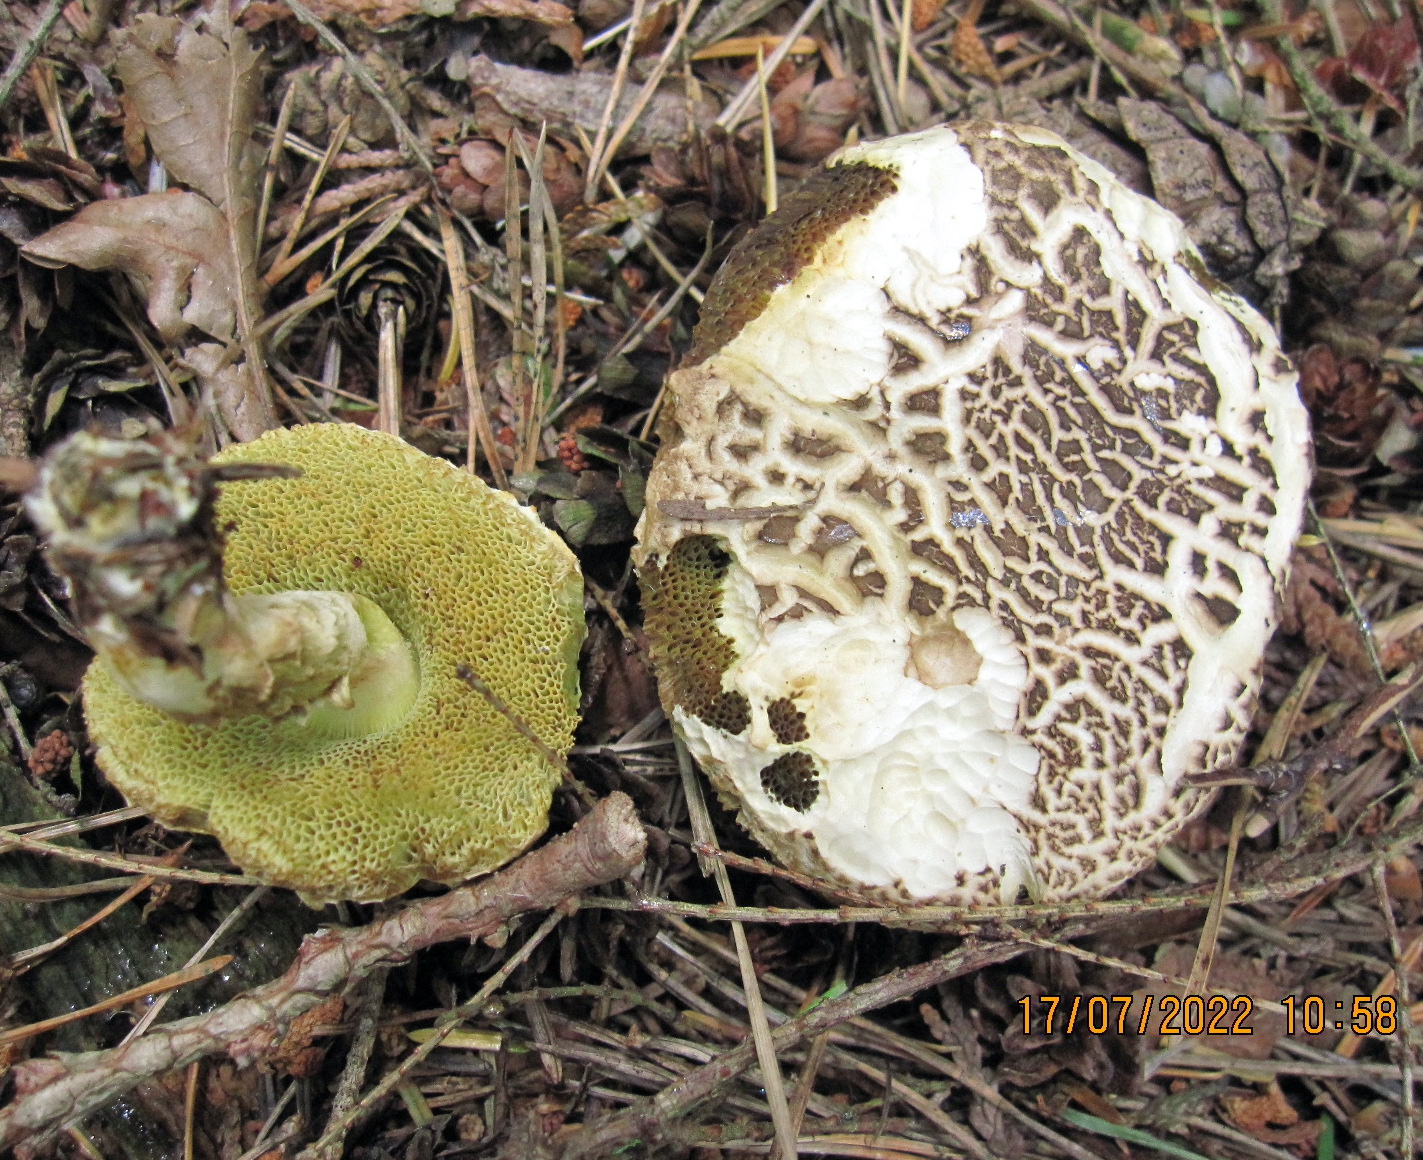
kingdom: Fungi
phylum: Basidiomycota
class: Agaricomycetes
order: Boletales
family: Boletaceae
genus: Xerocomellus
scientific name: Xerocomellus porosporus
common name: hvidsprukken rørhat
